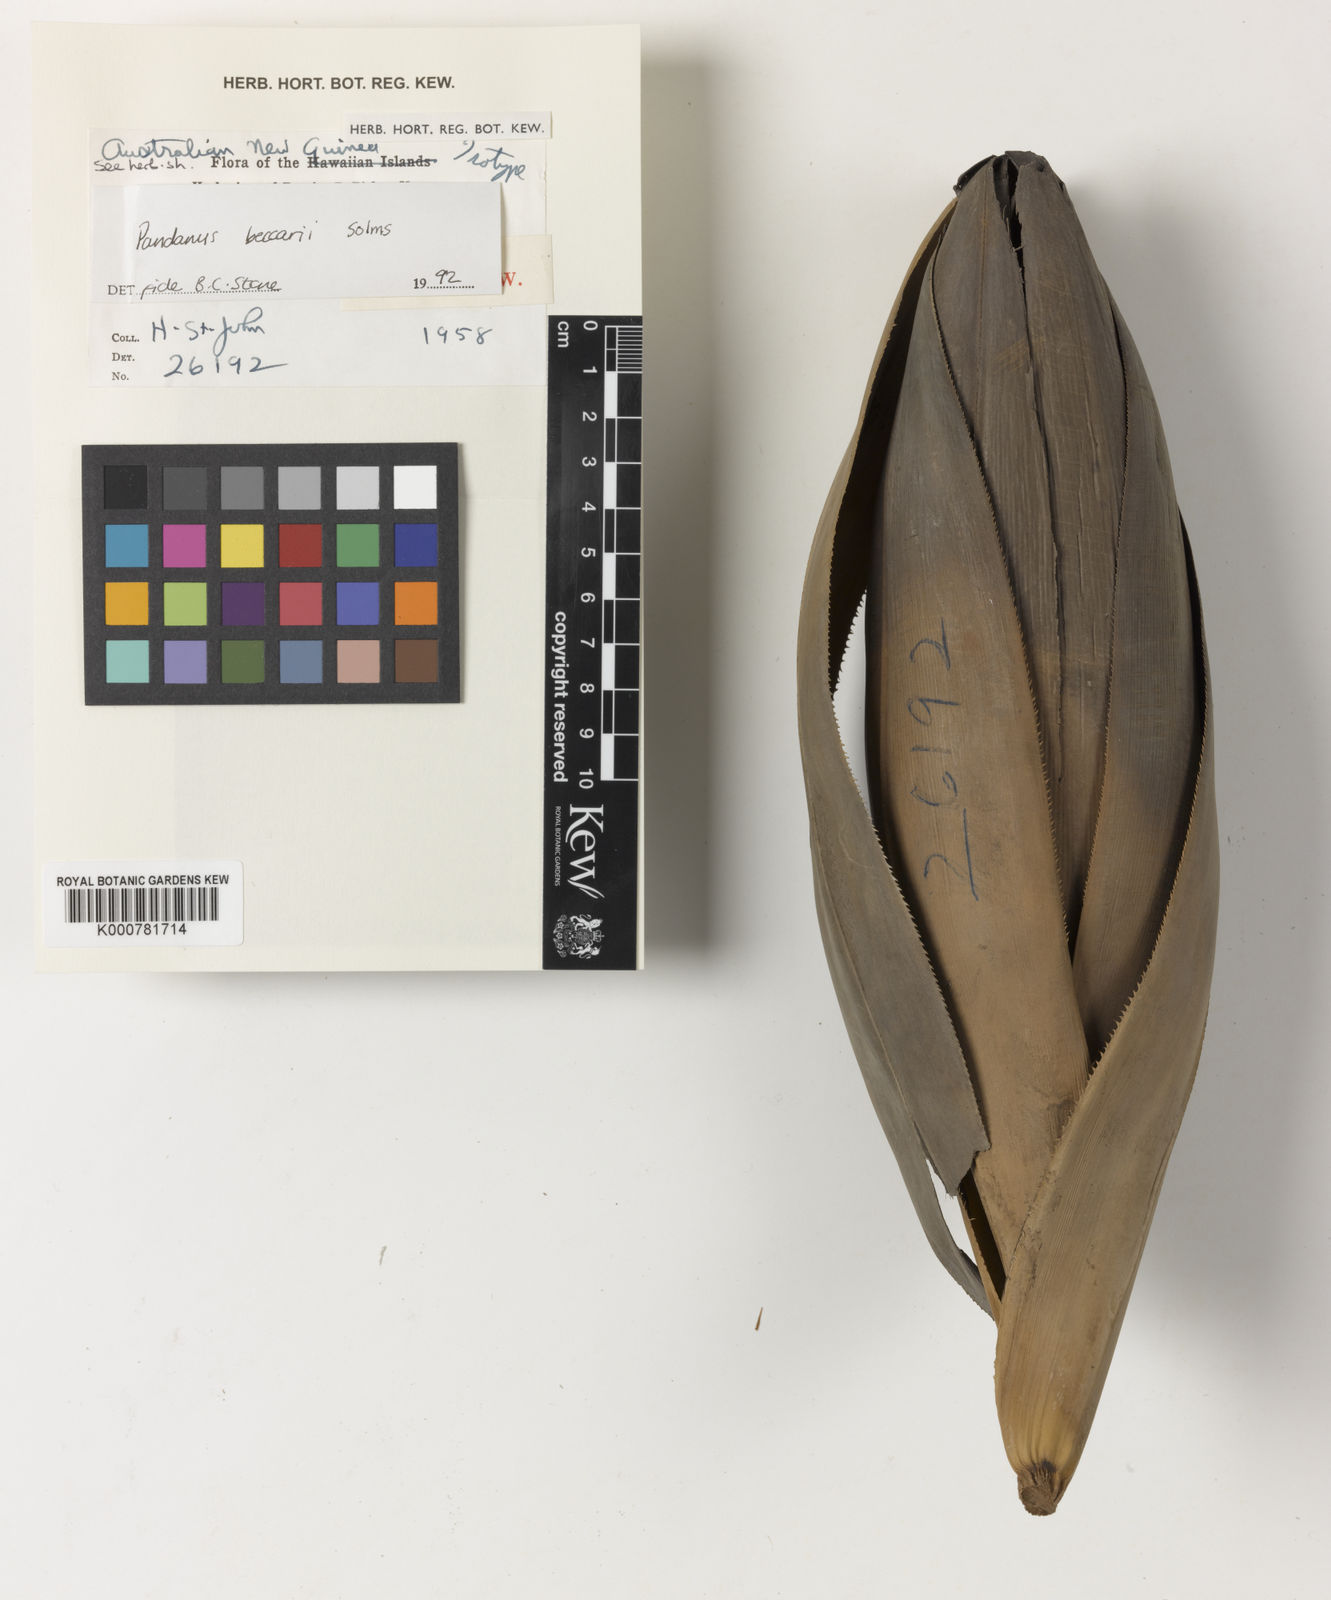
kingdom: Plantae
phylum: Tracheophyta
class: Liliopsida
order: Pandanales
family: Pandanaceae
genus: Pandanus
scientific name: Pandanus beccarii
